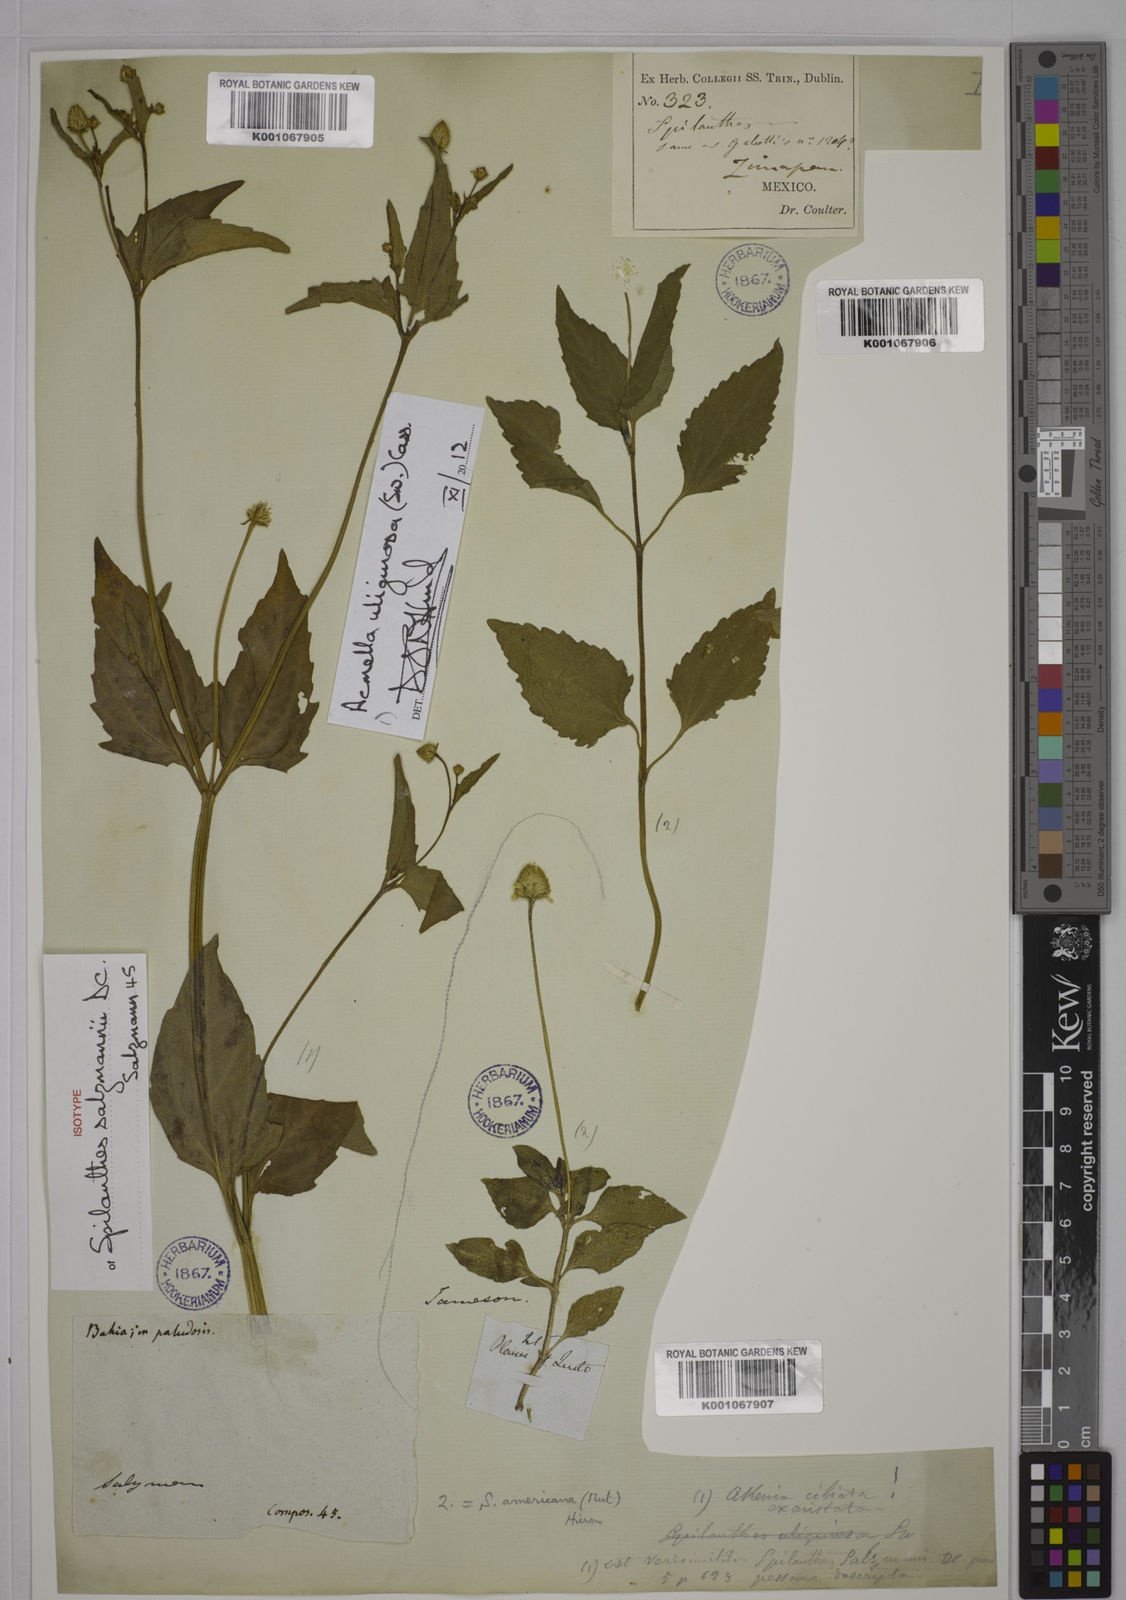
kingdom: Plantae
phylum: Tracheophyta
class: Magnoliopsida
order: Asterales
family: Asteraceae
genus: Acmella
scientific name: Acmella uliginosa
